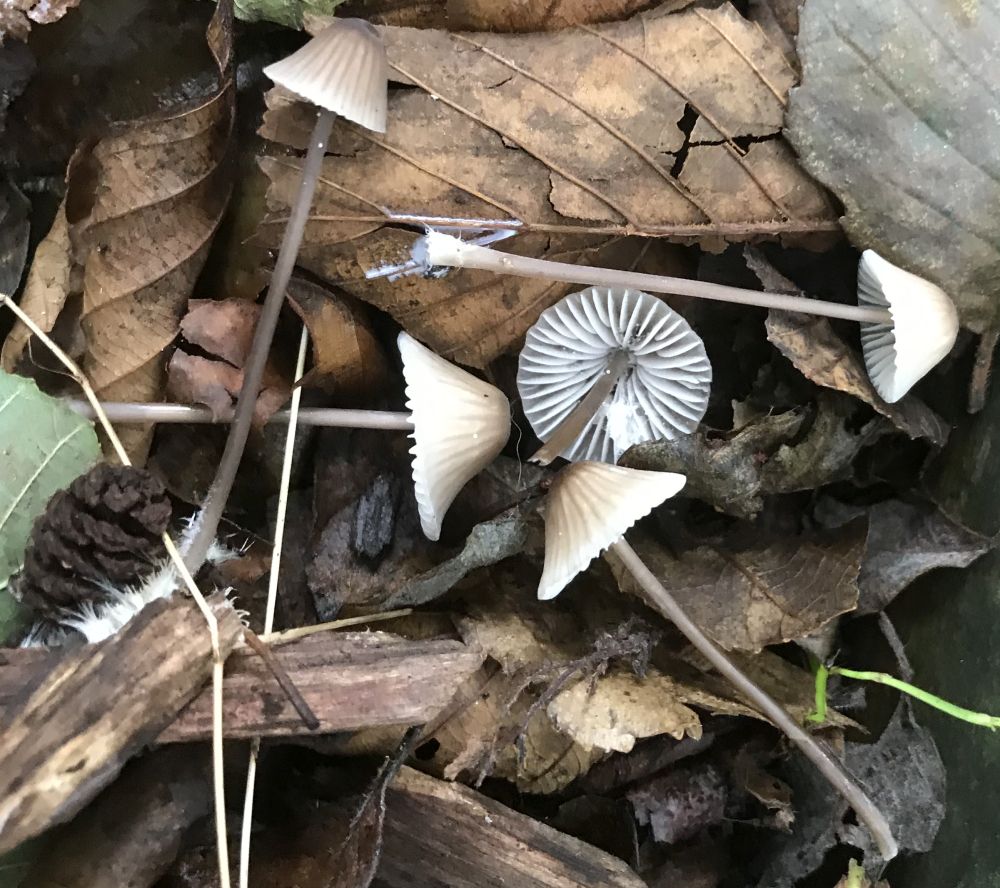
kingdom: Fungi
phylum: Basidiomycota
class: Agaricomycetes
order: Agaricales
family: Mycenaceae
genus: Mycena
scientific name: Mycena galopus
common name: hvidmælket huesvamp
